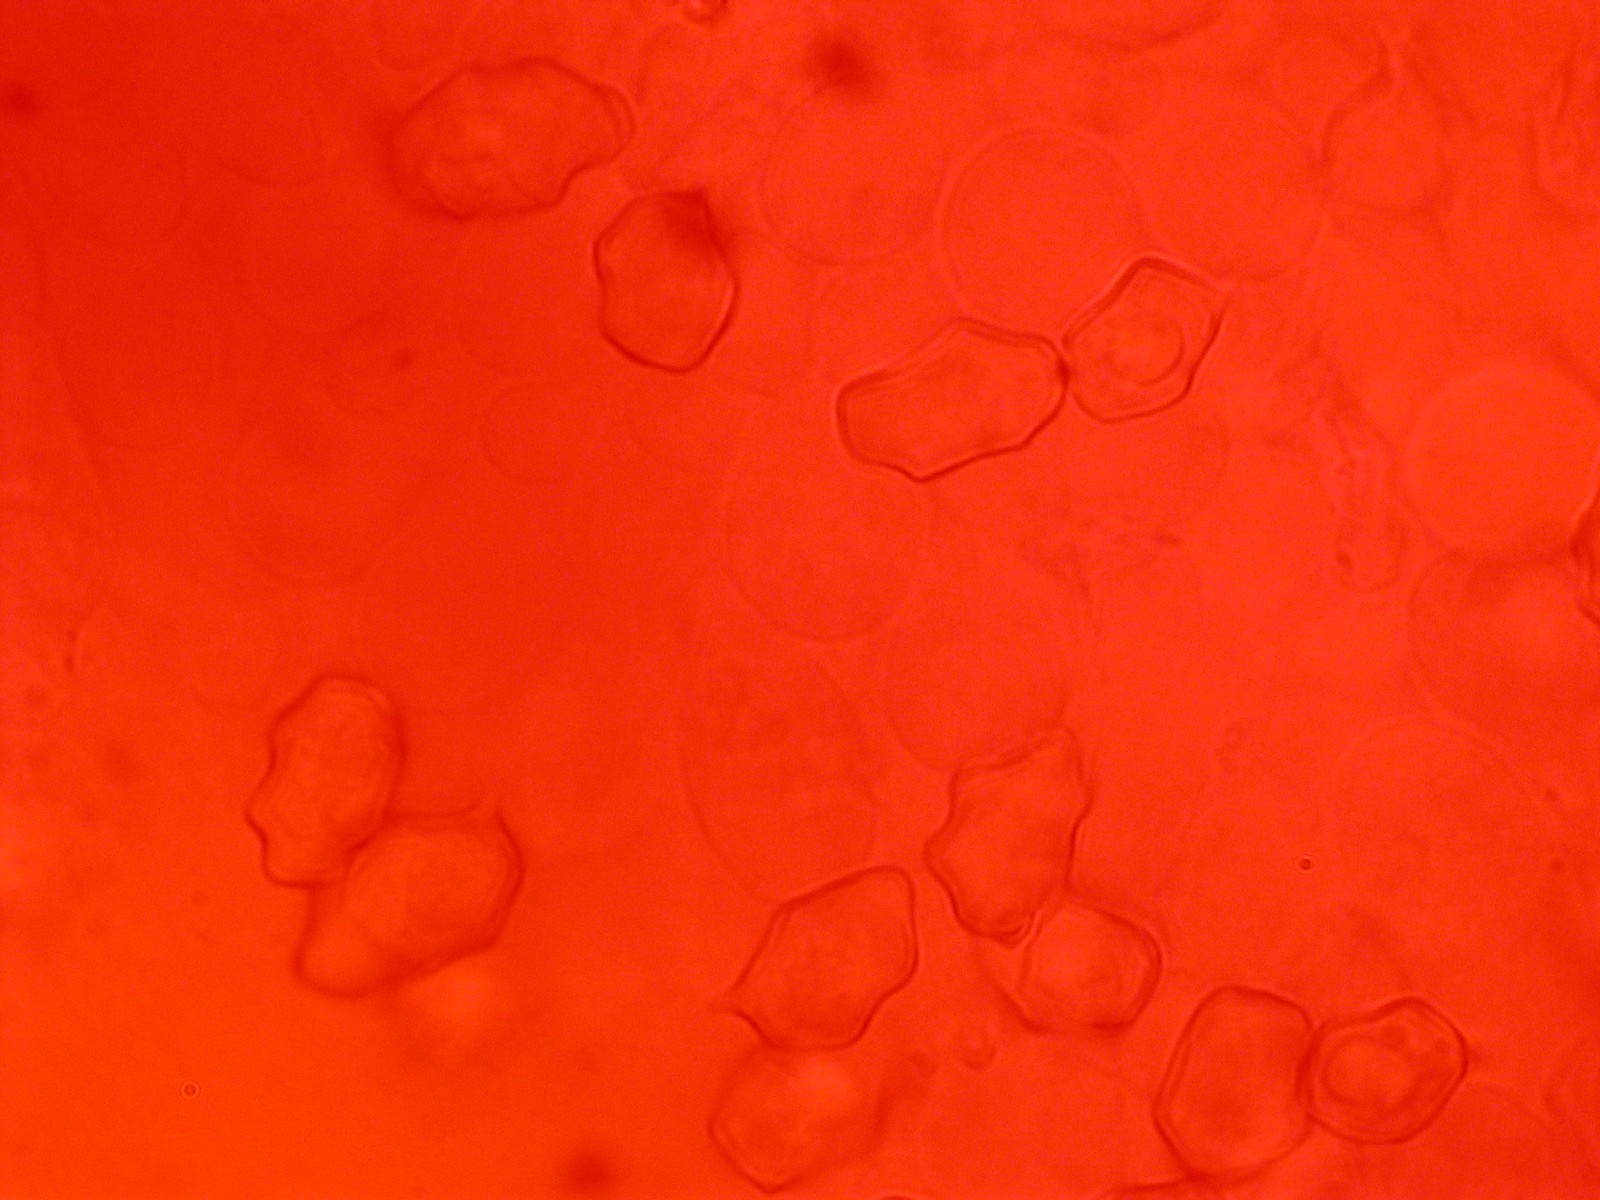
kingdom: Fungi
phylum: Basidiomycota
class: Agaricomycetes
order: Agaricales
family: Entolomataceae
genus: Entoloma
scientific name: Entoloma
